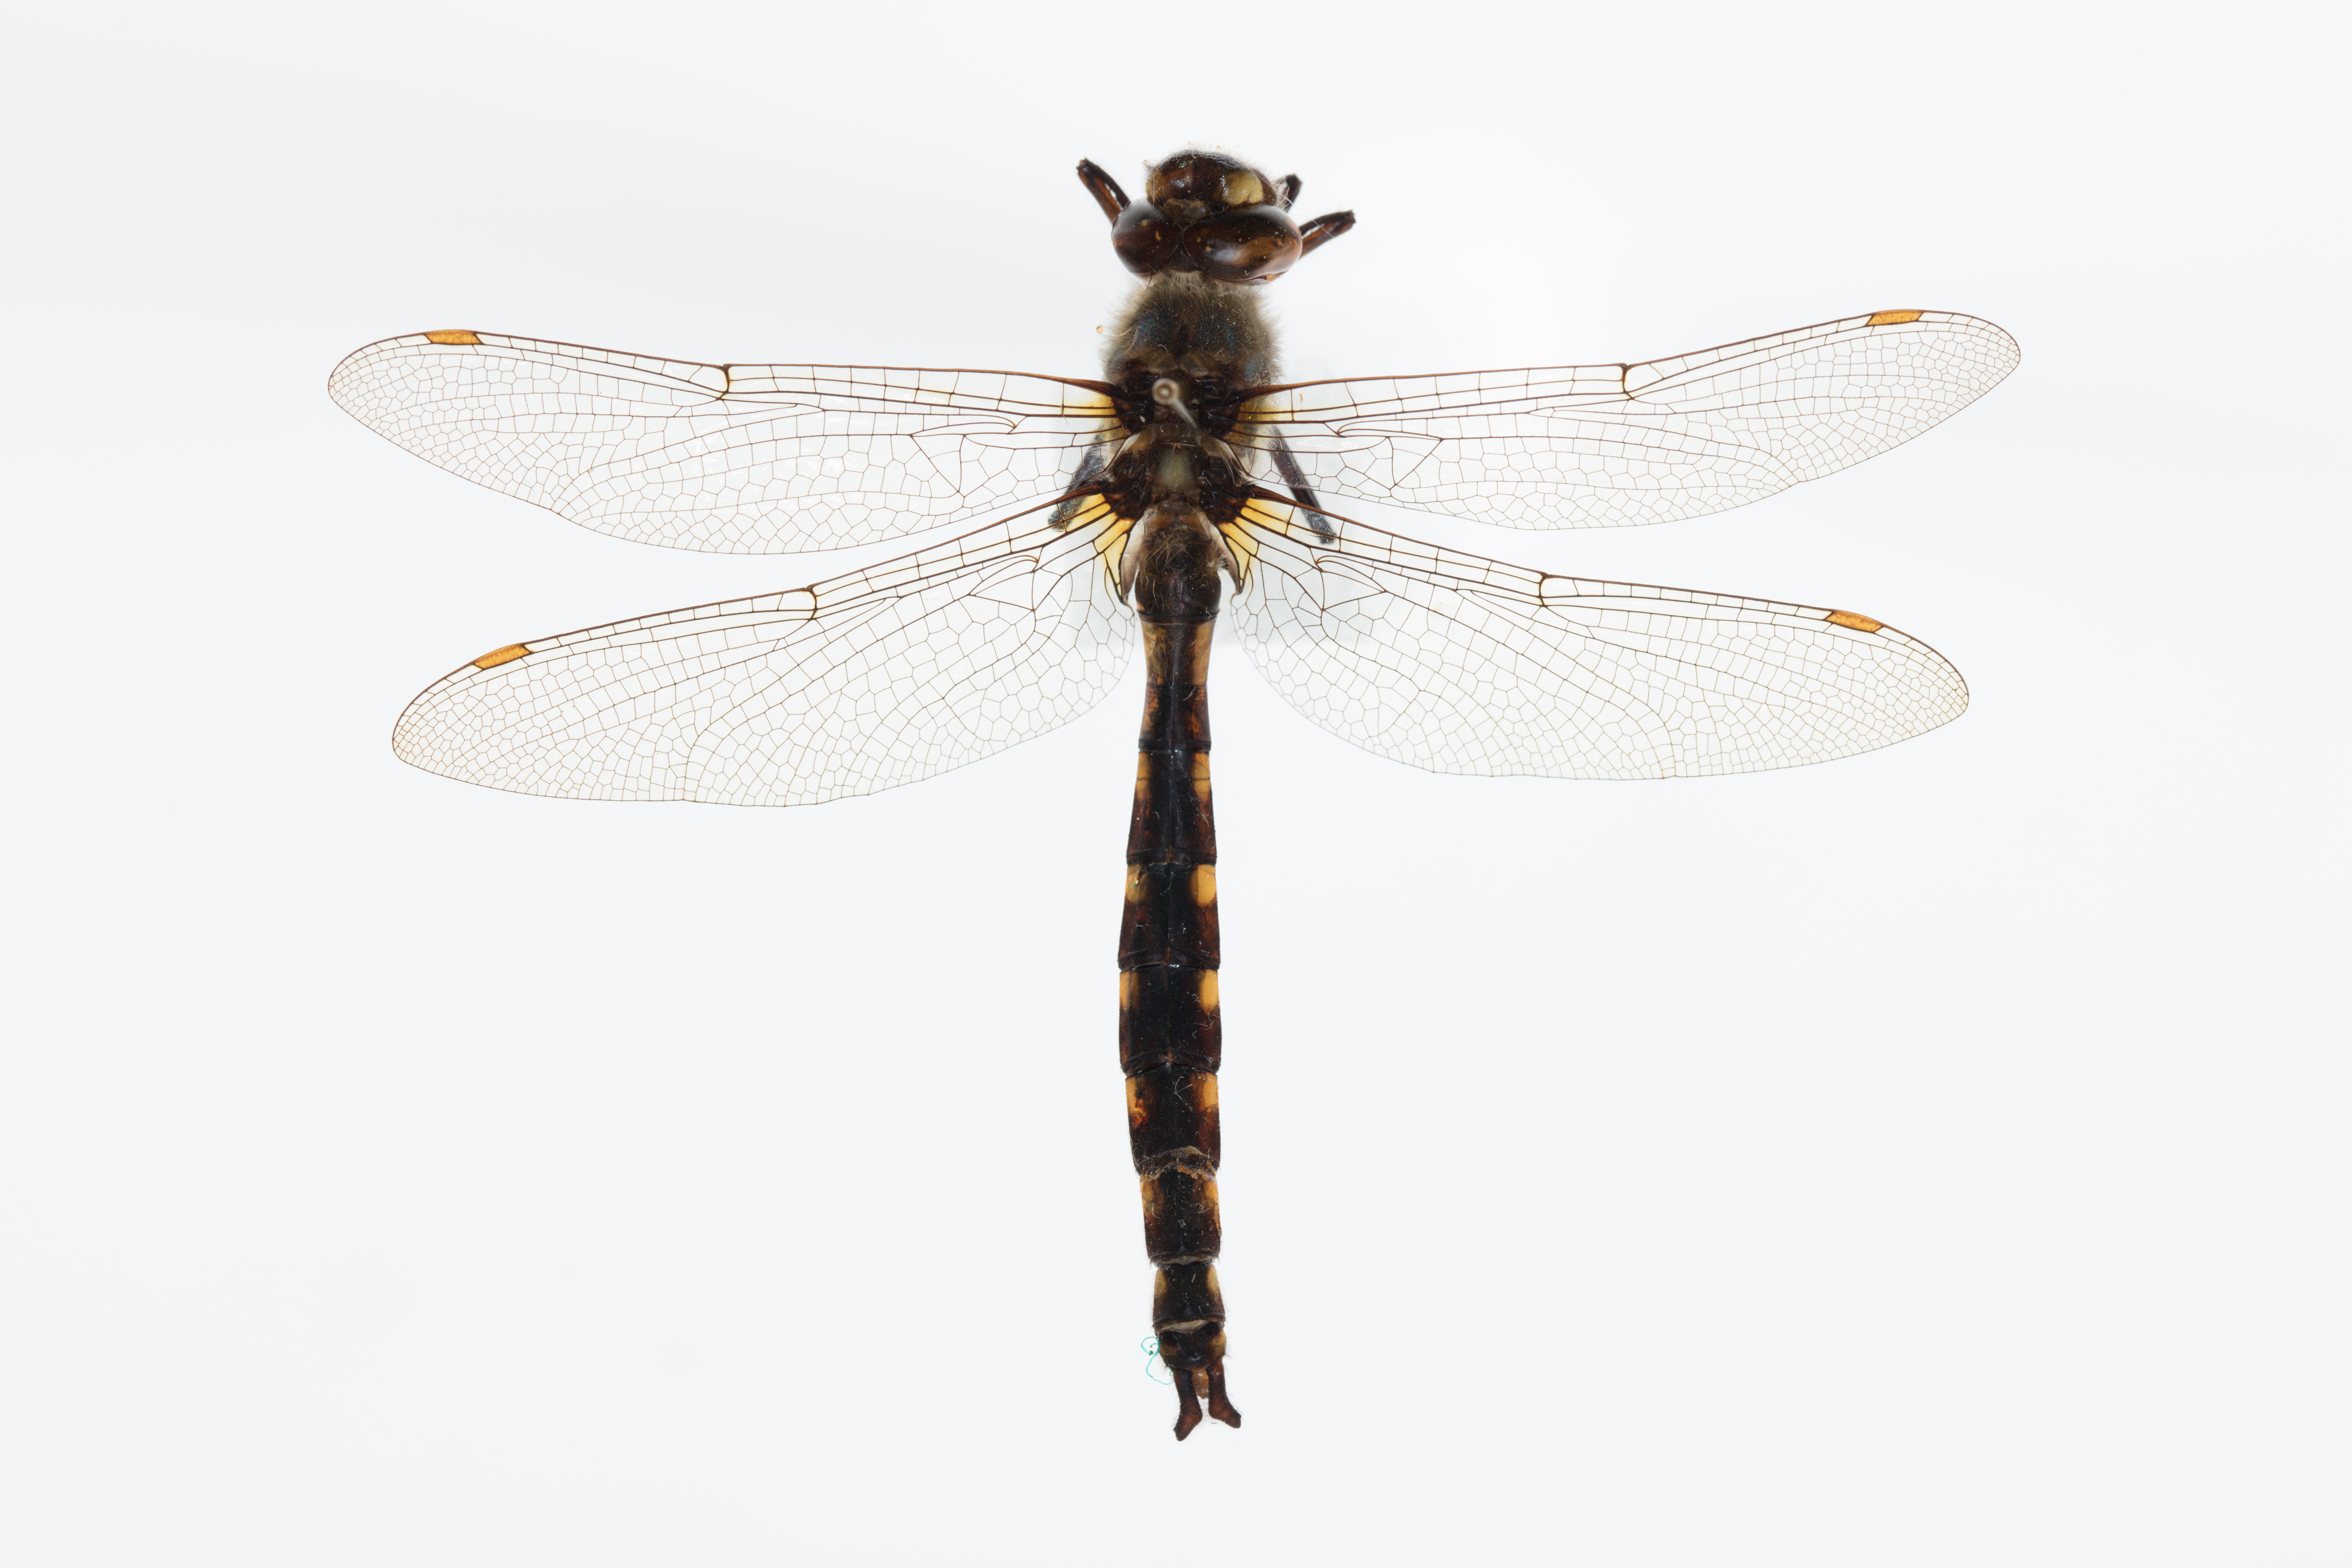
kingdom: Animalia
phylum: Arthropoda
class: Insecta
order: Odonata
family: Corduliidae
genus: Procordulia
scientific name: Procordulia grayi
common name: Yellow spotted dragonfly
